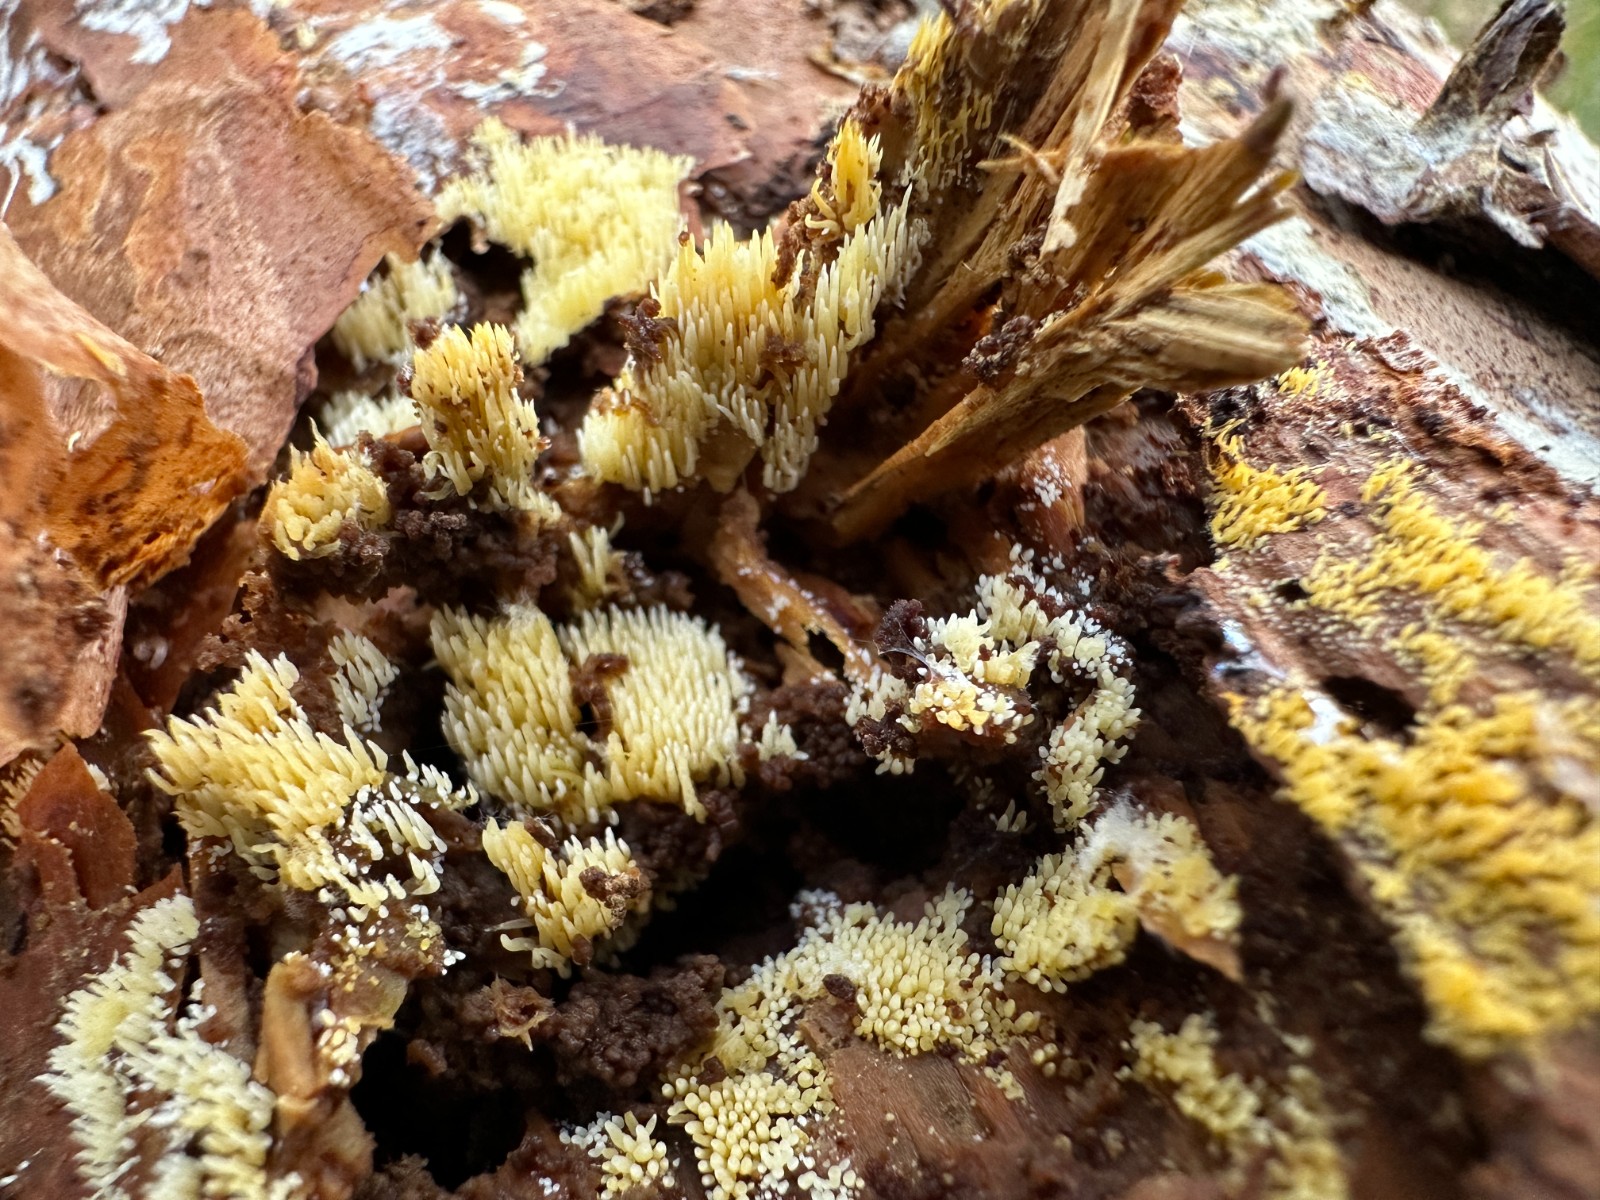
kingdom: Fungi
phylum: Basidiomycota
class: Agaricomycetes
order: Agaricales
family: Clavariaceae
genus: Mucronella
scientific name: Mucronella flava
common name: gul hængepig
